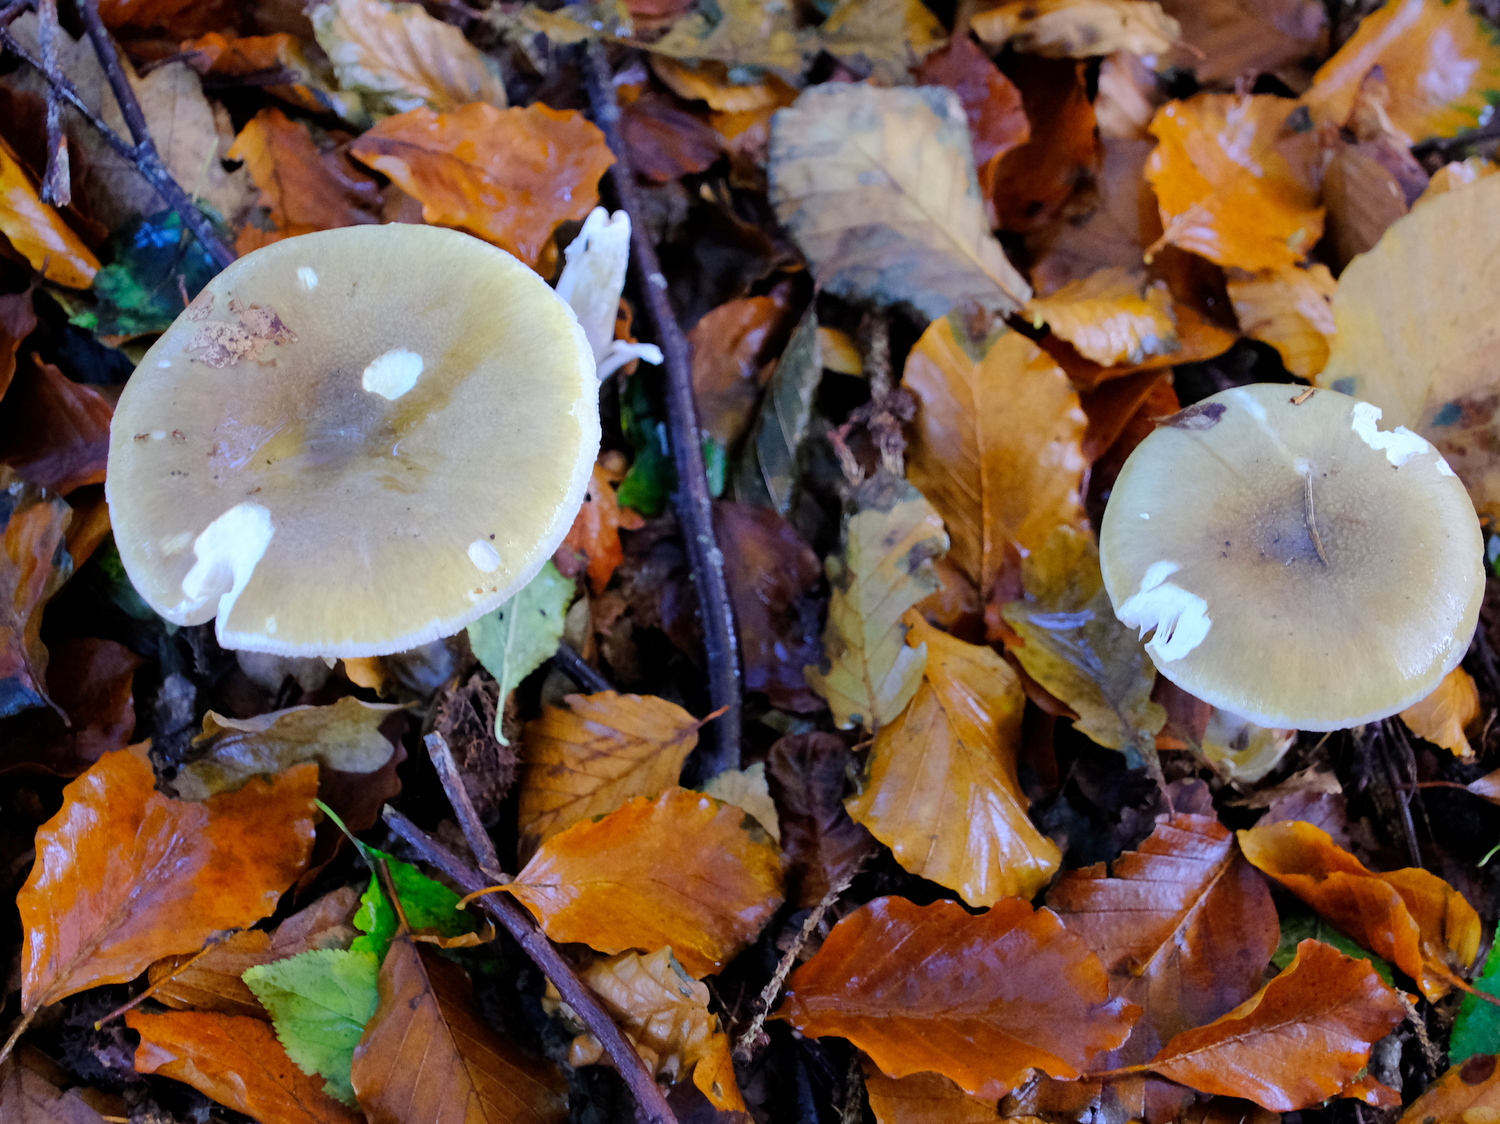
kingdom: Fungi
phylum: Basidiomycota
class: Agaricomycetes
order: Agaricales
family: Amanitaceae
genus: Amanita
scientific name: Amanita phalloides
